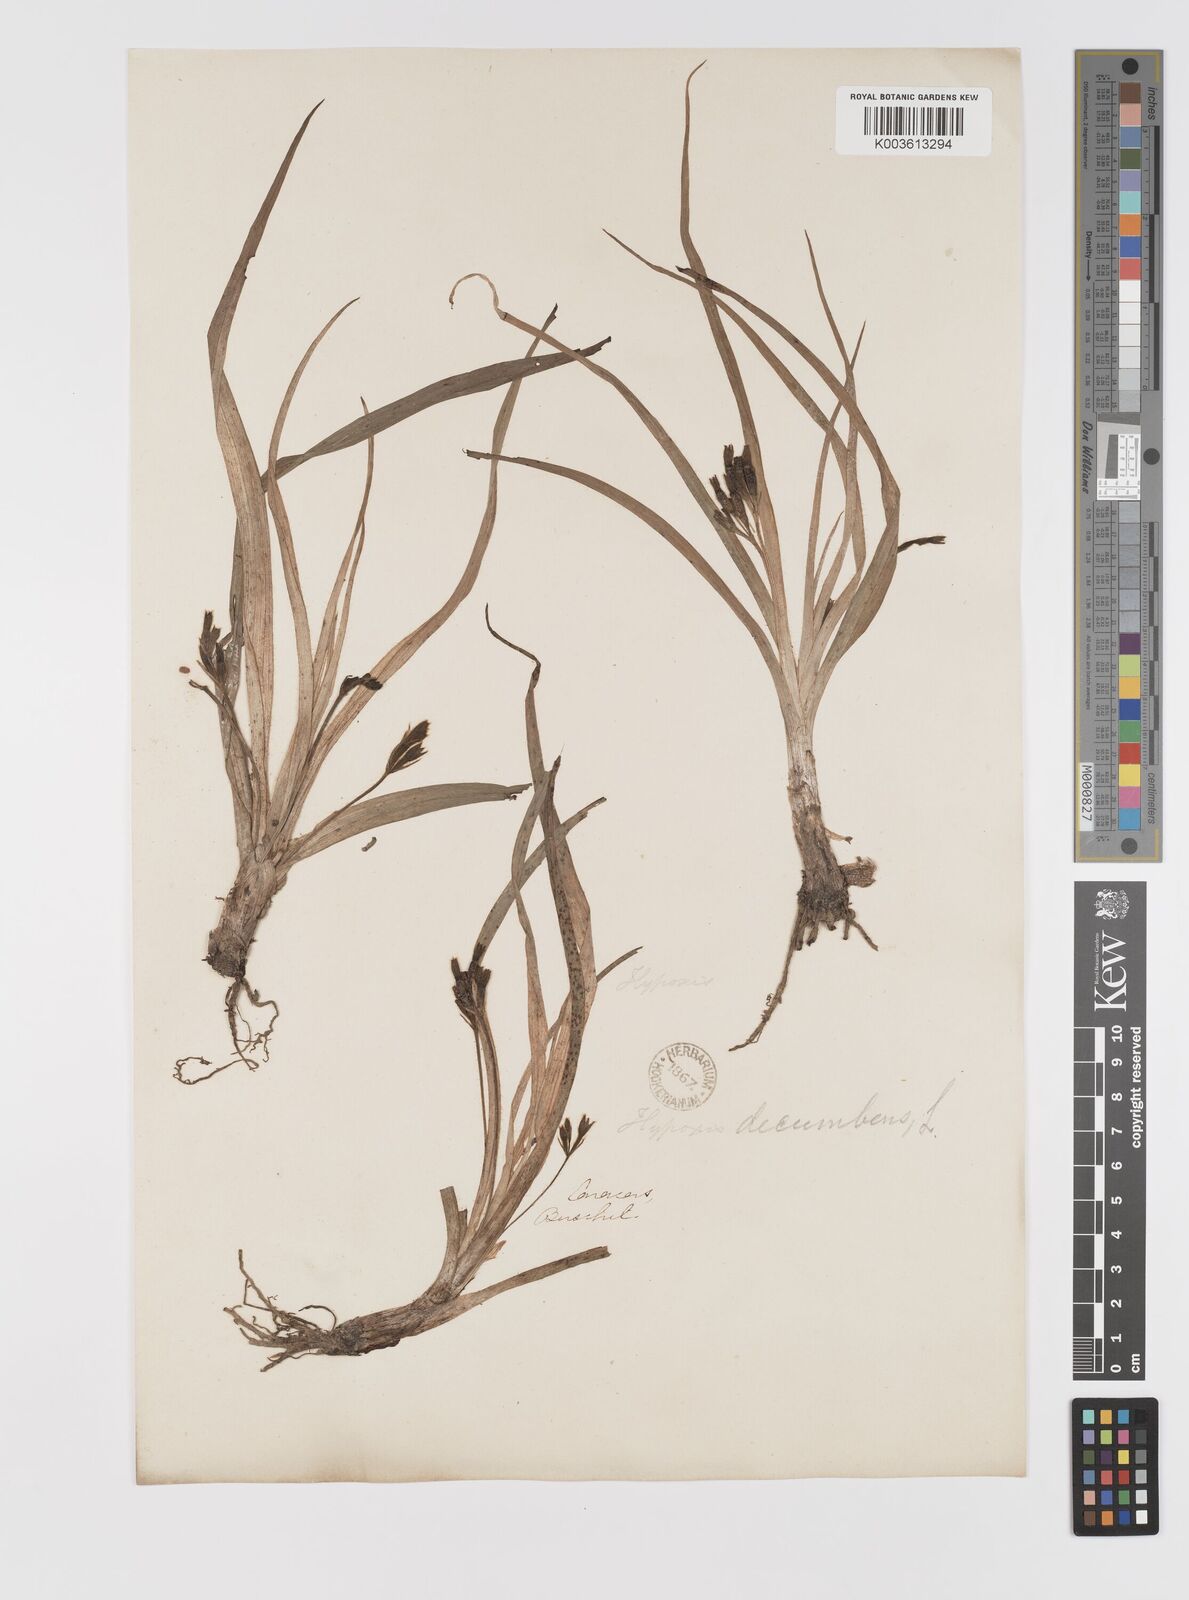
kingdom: Plantae
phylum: Tracheophyta
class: Liliopsida
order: Asparagales
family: Hypoxidaceae
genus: Hypoxis
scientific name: Hypoxis decumbens
